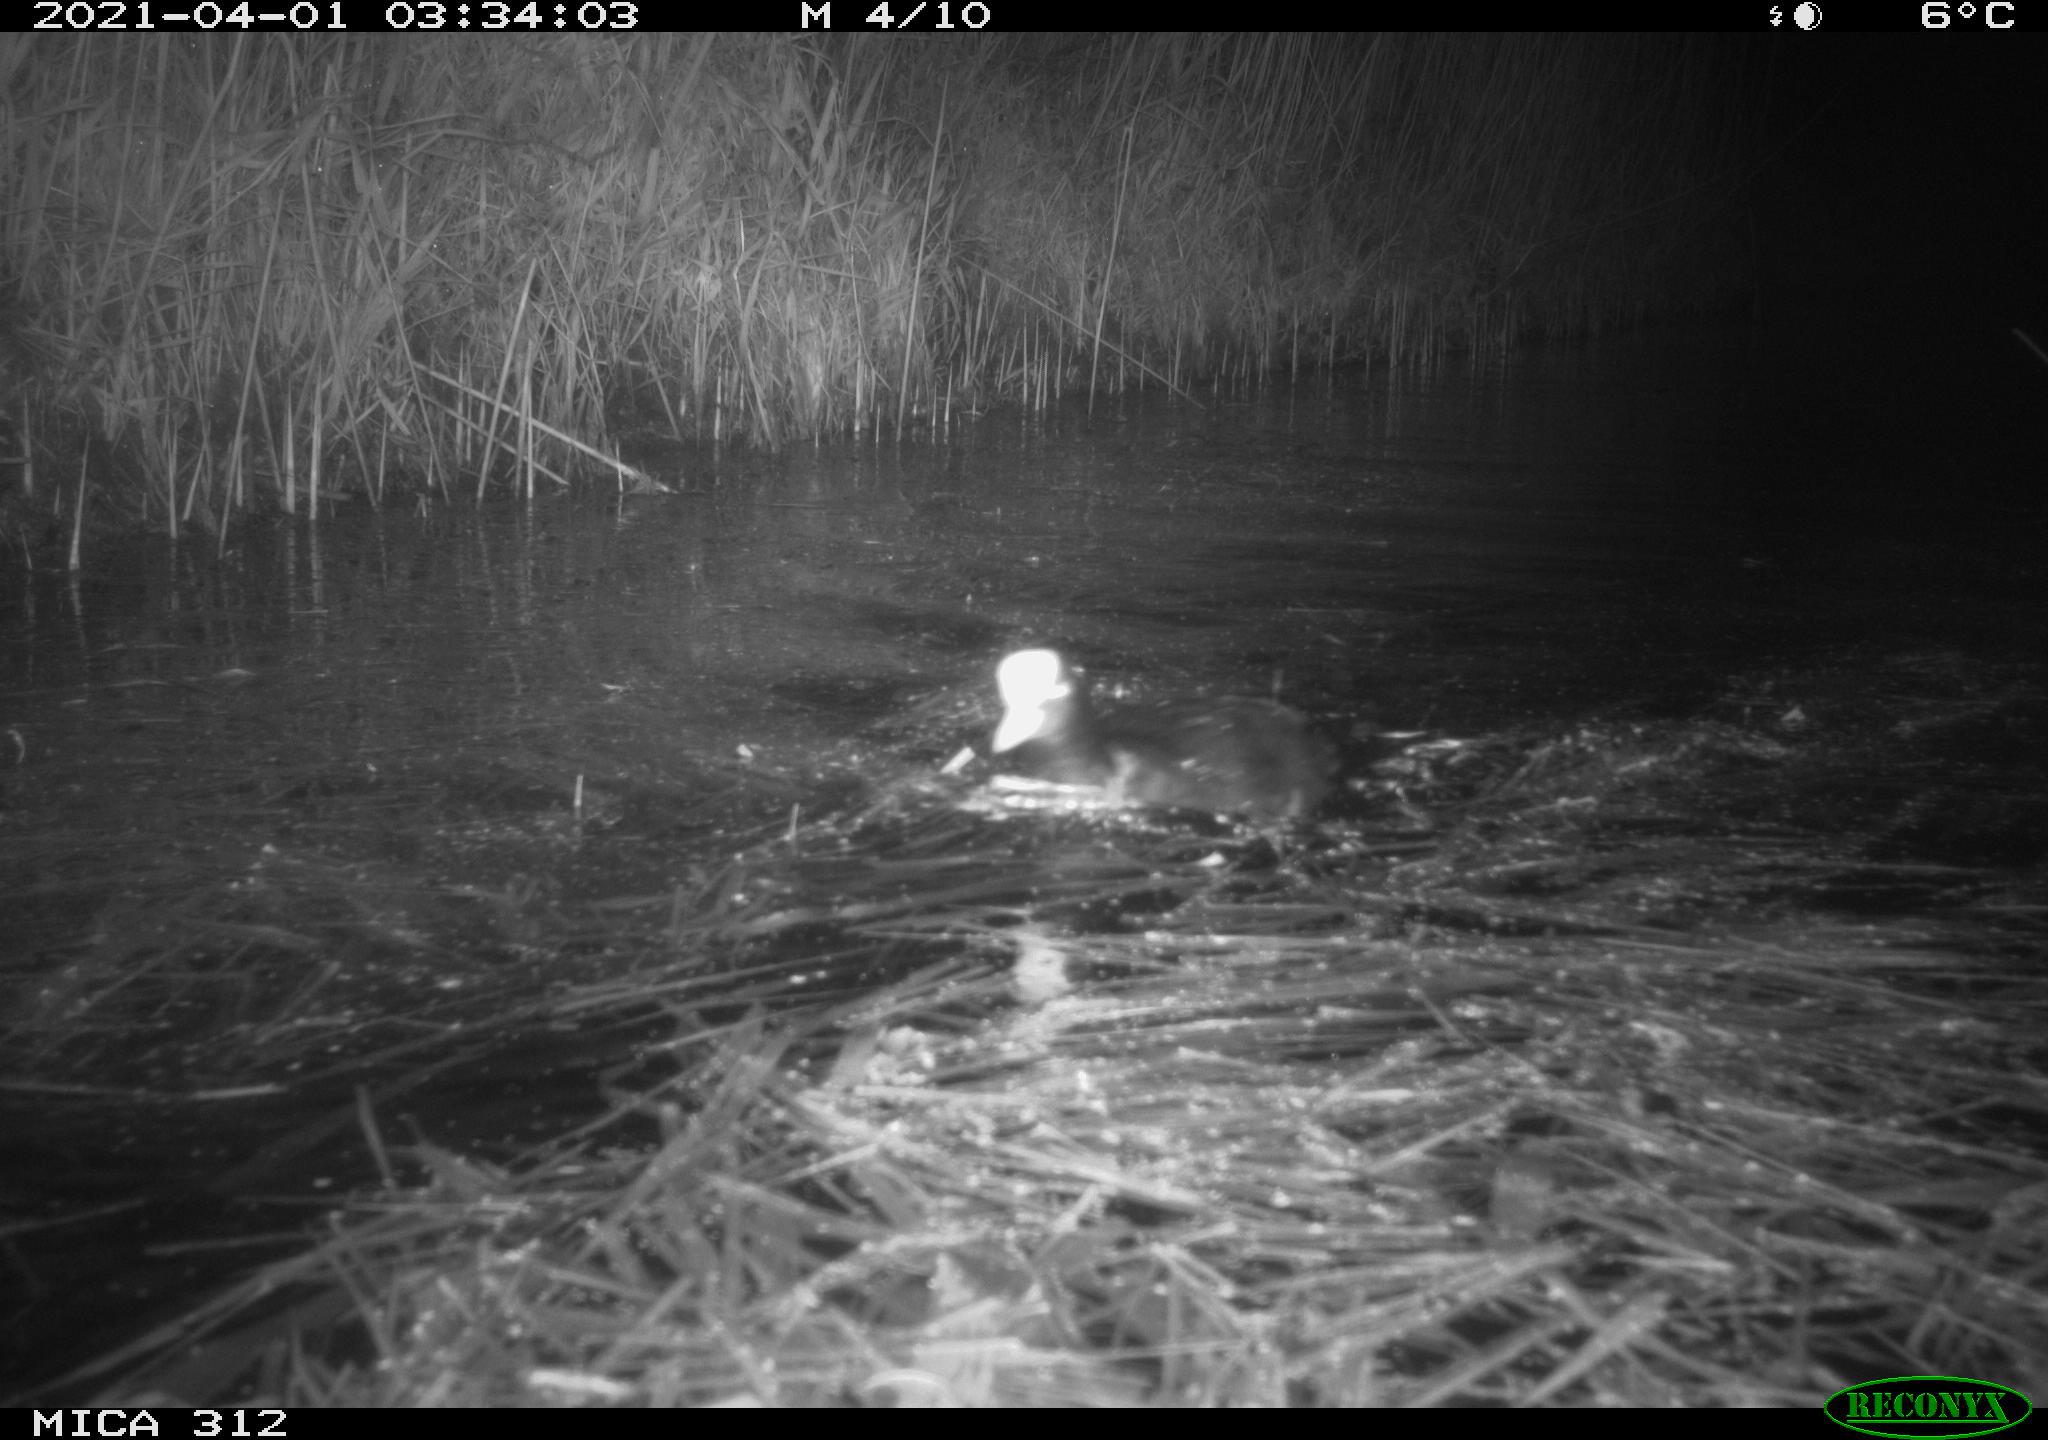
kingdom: Animalia
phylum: Chordata
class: Aves
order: Gruiformes
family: Rallidae
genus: Fulica
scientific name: Fulica atra
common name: Eurasian coot
